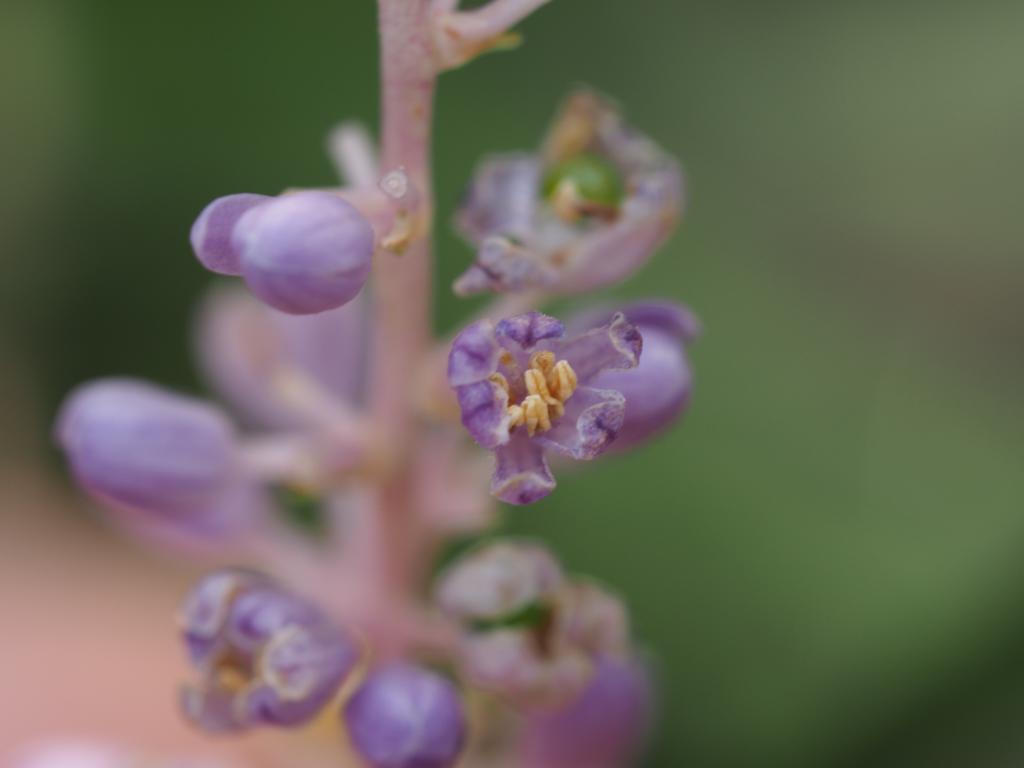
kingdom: Plantae
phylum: Tracheophyta
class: Liliopsida
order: Asparagales
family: Asparagaceae
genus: Liriope
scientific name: Liriope graminifolia
